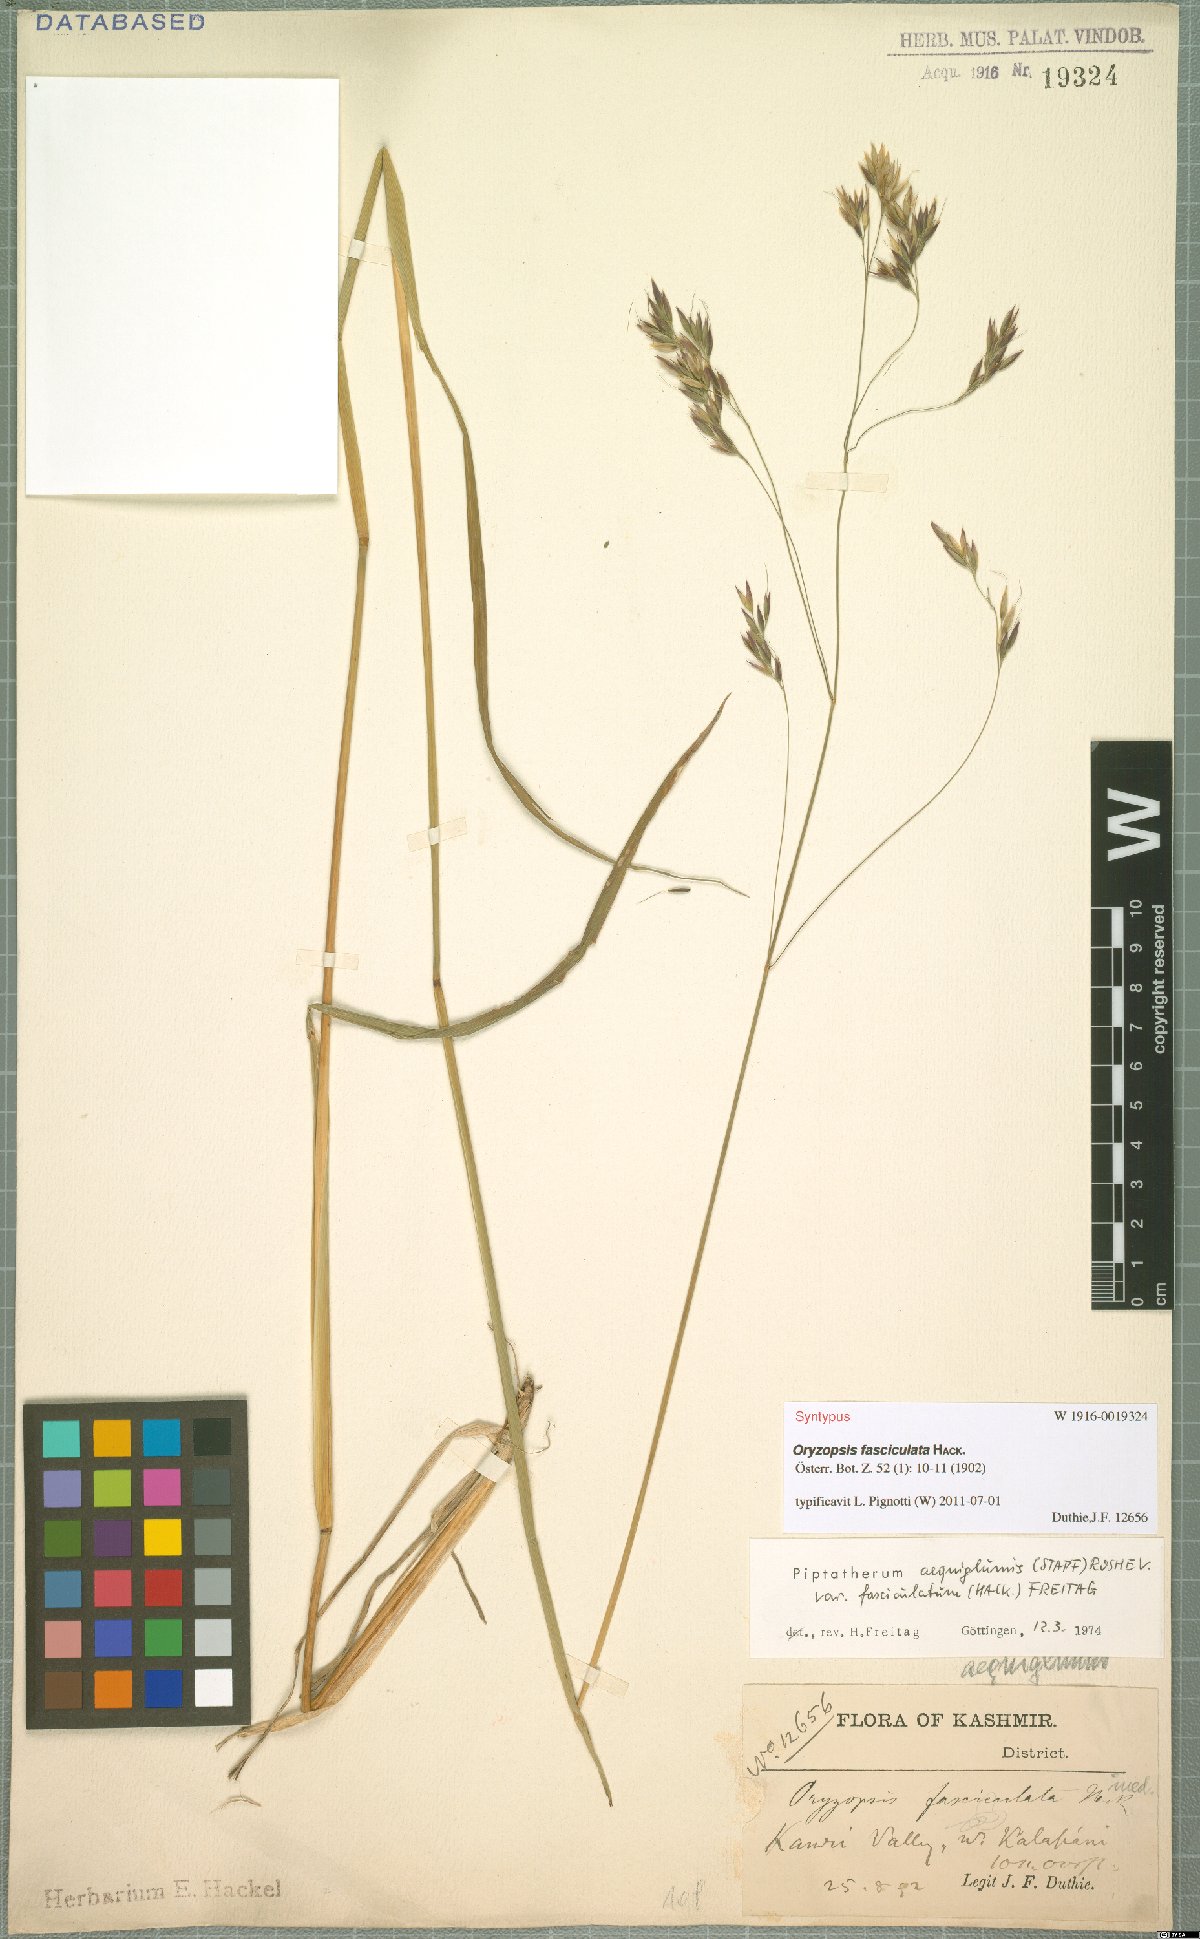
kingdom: Plantae
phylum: Tracheophyta
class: Liliopsida
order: Poales
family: Poaceae
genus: Piptatherum
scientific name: Piptatherum aequiglume
